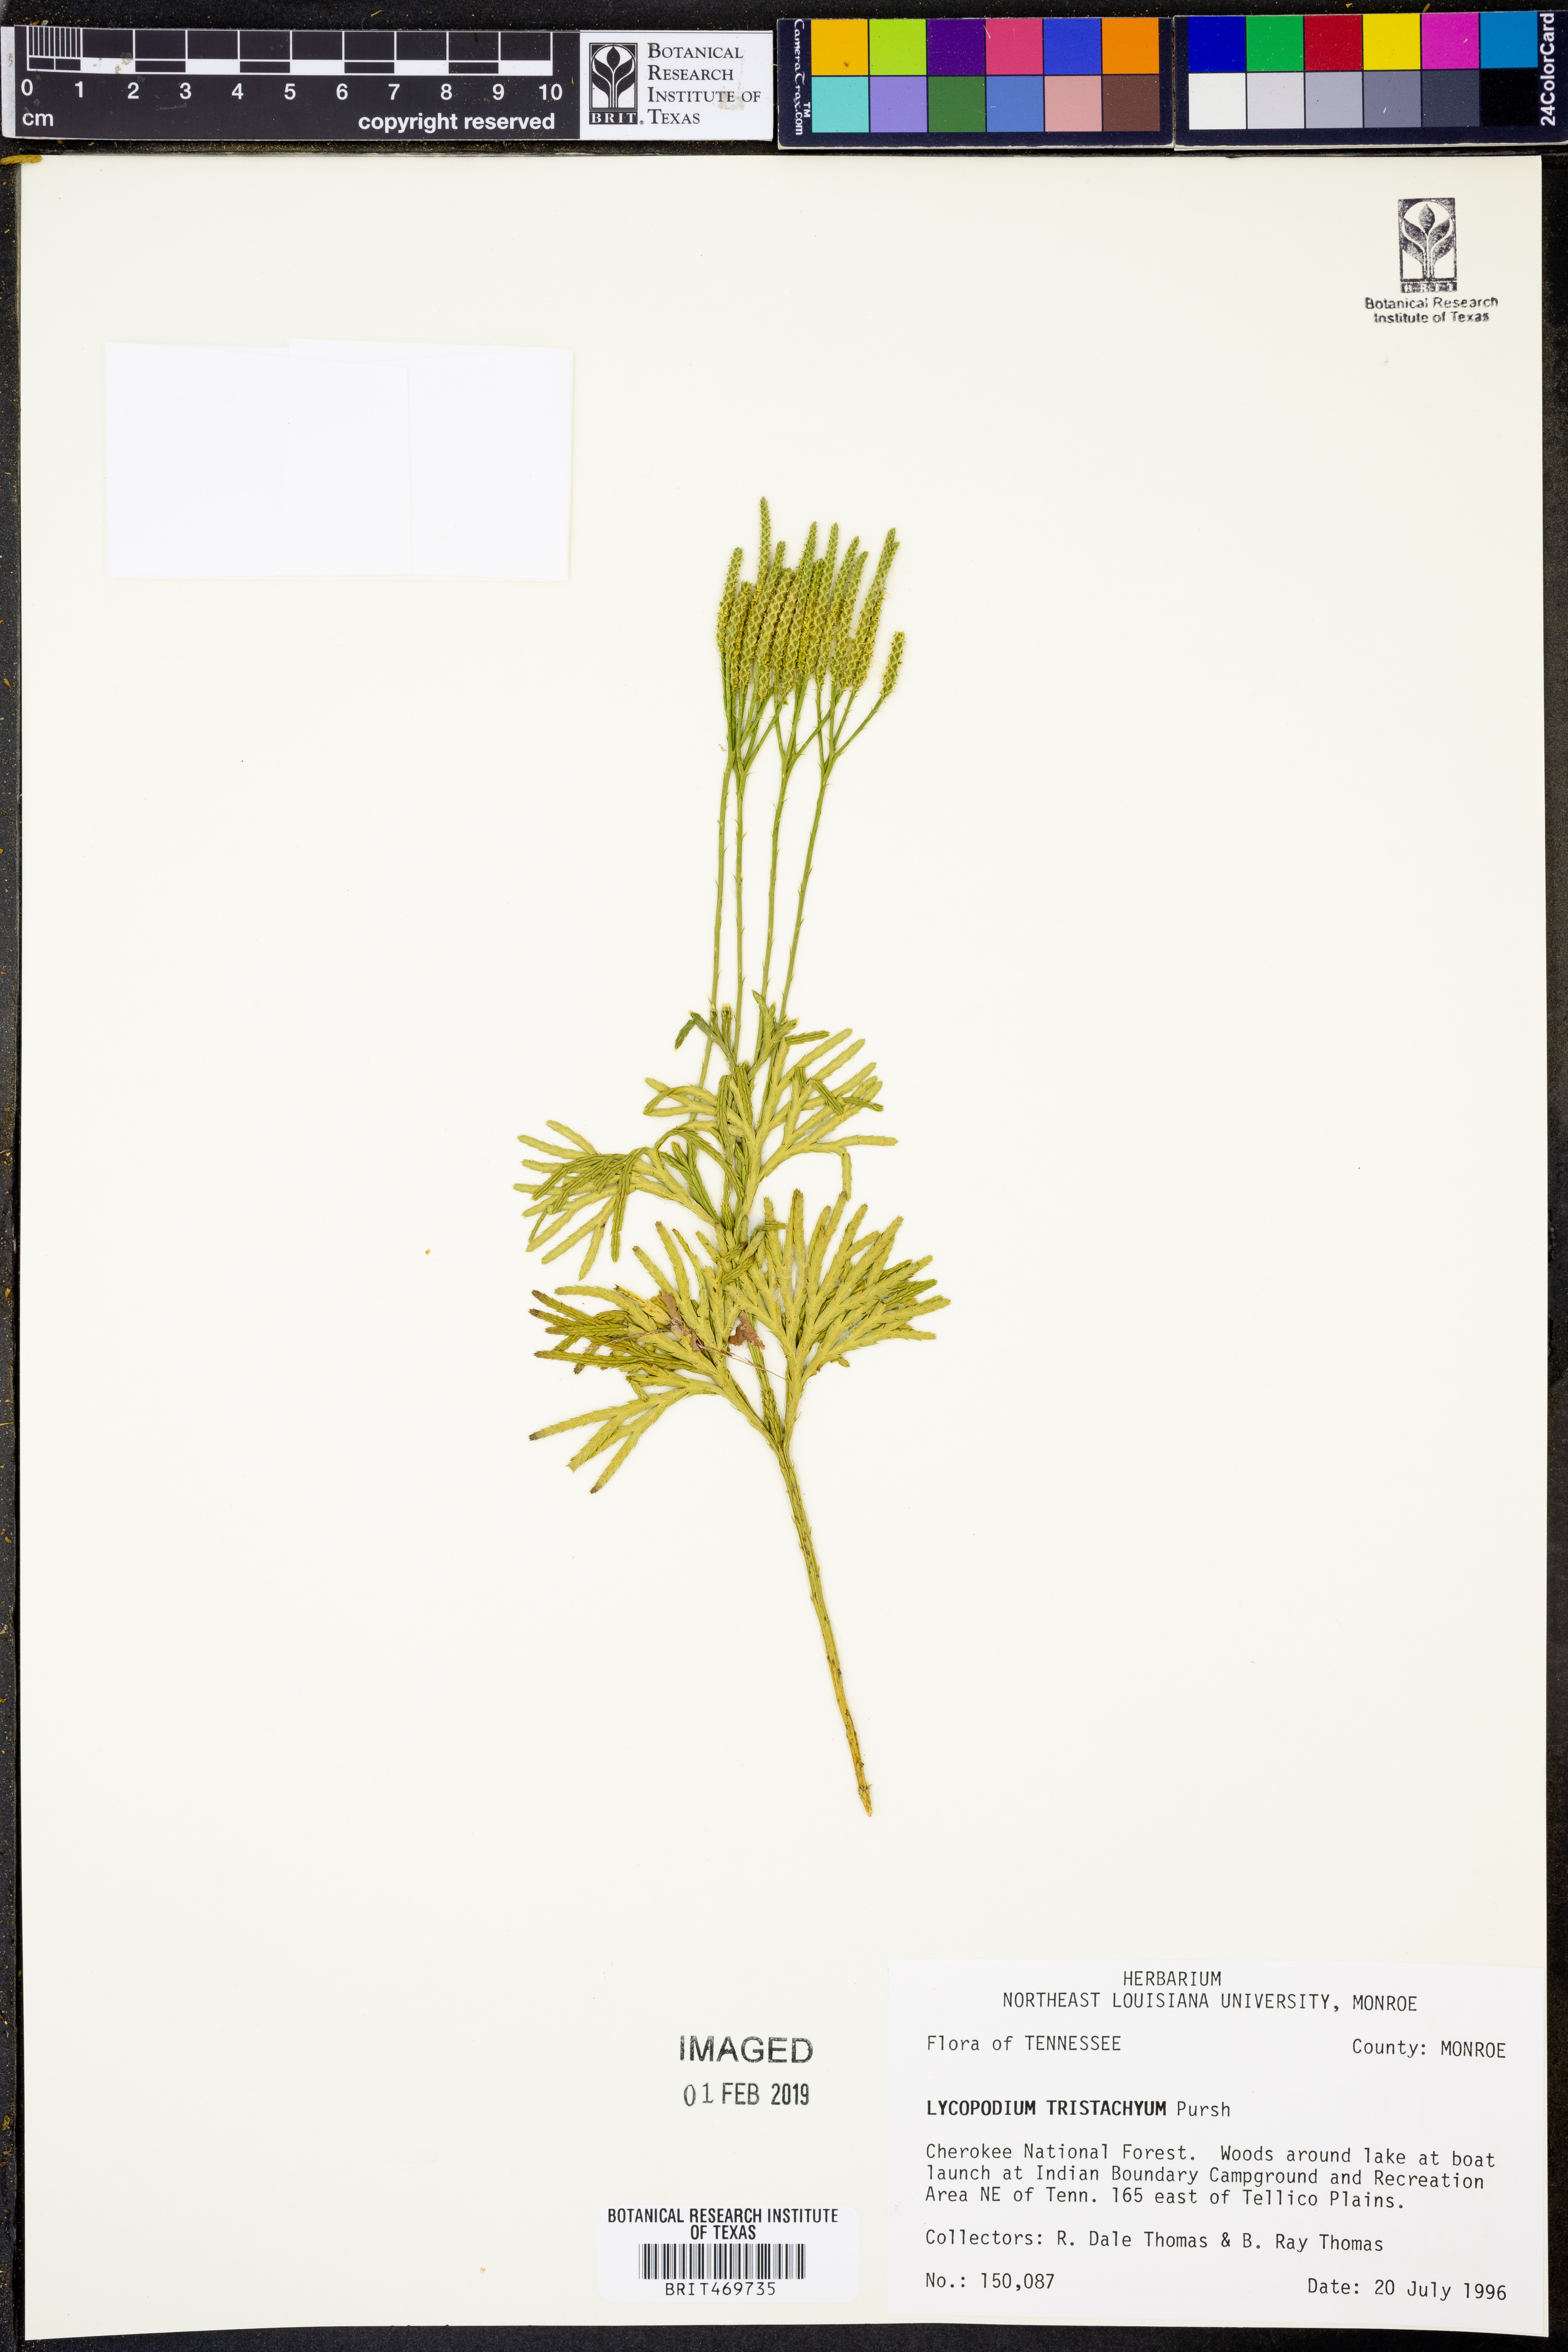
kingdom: Plantae
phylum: Tracheophyta
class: Lycopodiopsida
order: Lycopodiales
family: Lycopodiaceae
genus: Diphasiastrum
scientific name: Diphasiastrum tristachyum
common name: Blue ground-cedar
